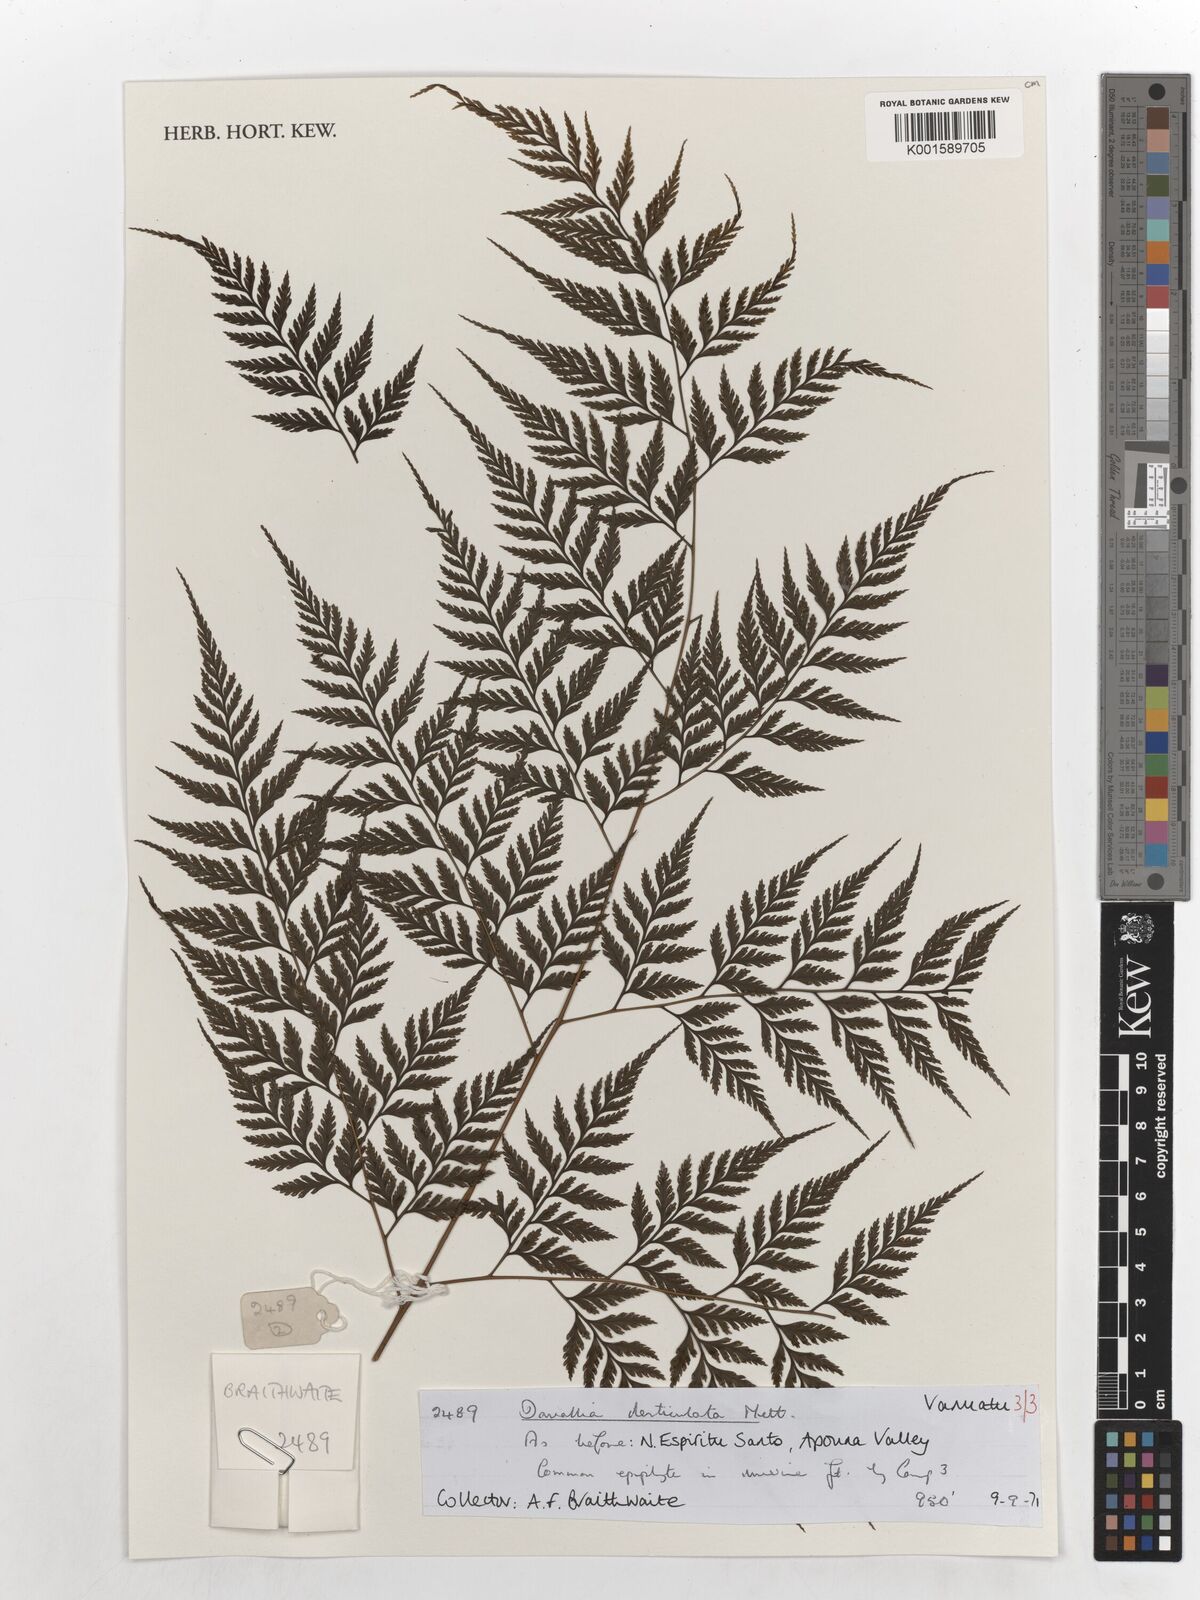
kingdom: Plantae
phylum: Tracheophyta
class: Polypodiopsida
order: Polypodiales
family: Davalliaceae
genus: Davallia
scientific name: Davallia denticulata
